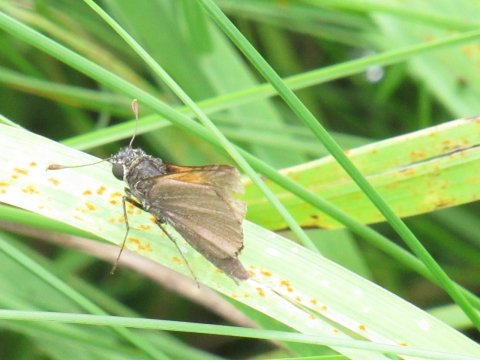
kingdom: Animalia
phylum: Arthropoda
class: Insecta
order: Lepidoptera
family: Hesperiidae
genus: Polites
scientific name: Polites themistocles
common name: Tawny-edged Skipper
